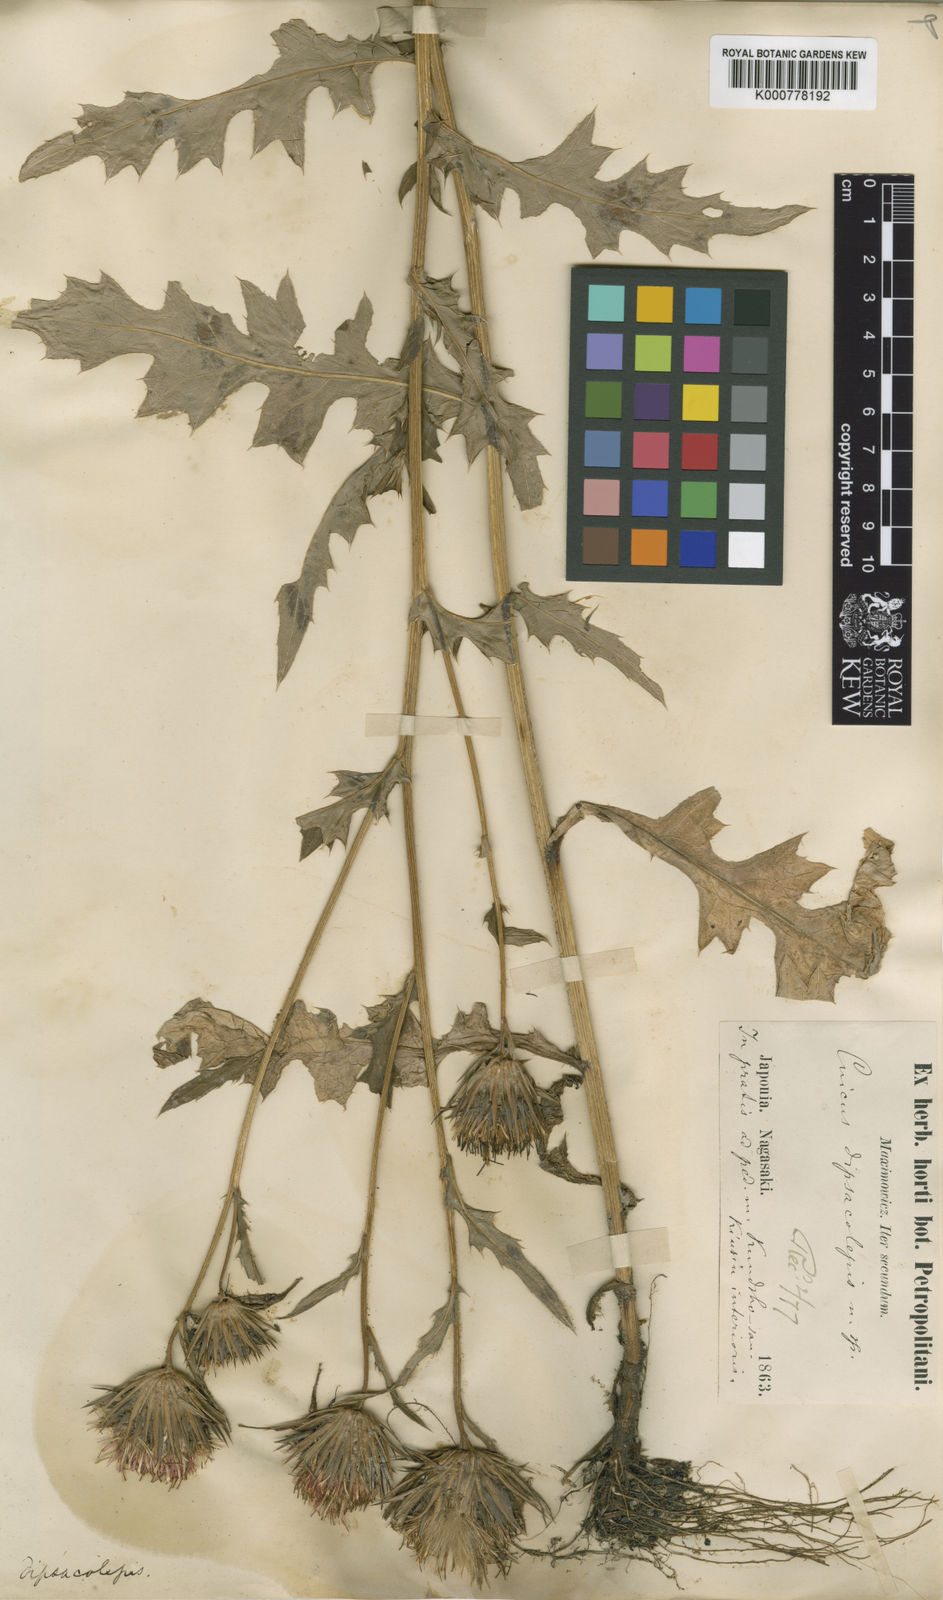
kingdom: Plantae
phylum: Tracheophyta
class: Magnoliopsida
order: Asterales
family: Asteraceae
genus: Cirsium
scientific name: Cirsium dipsacolepis
